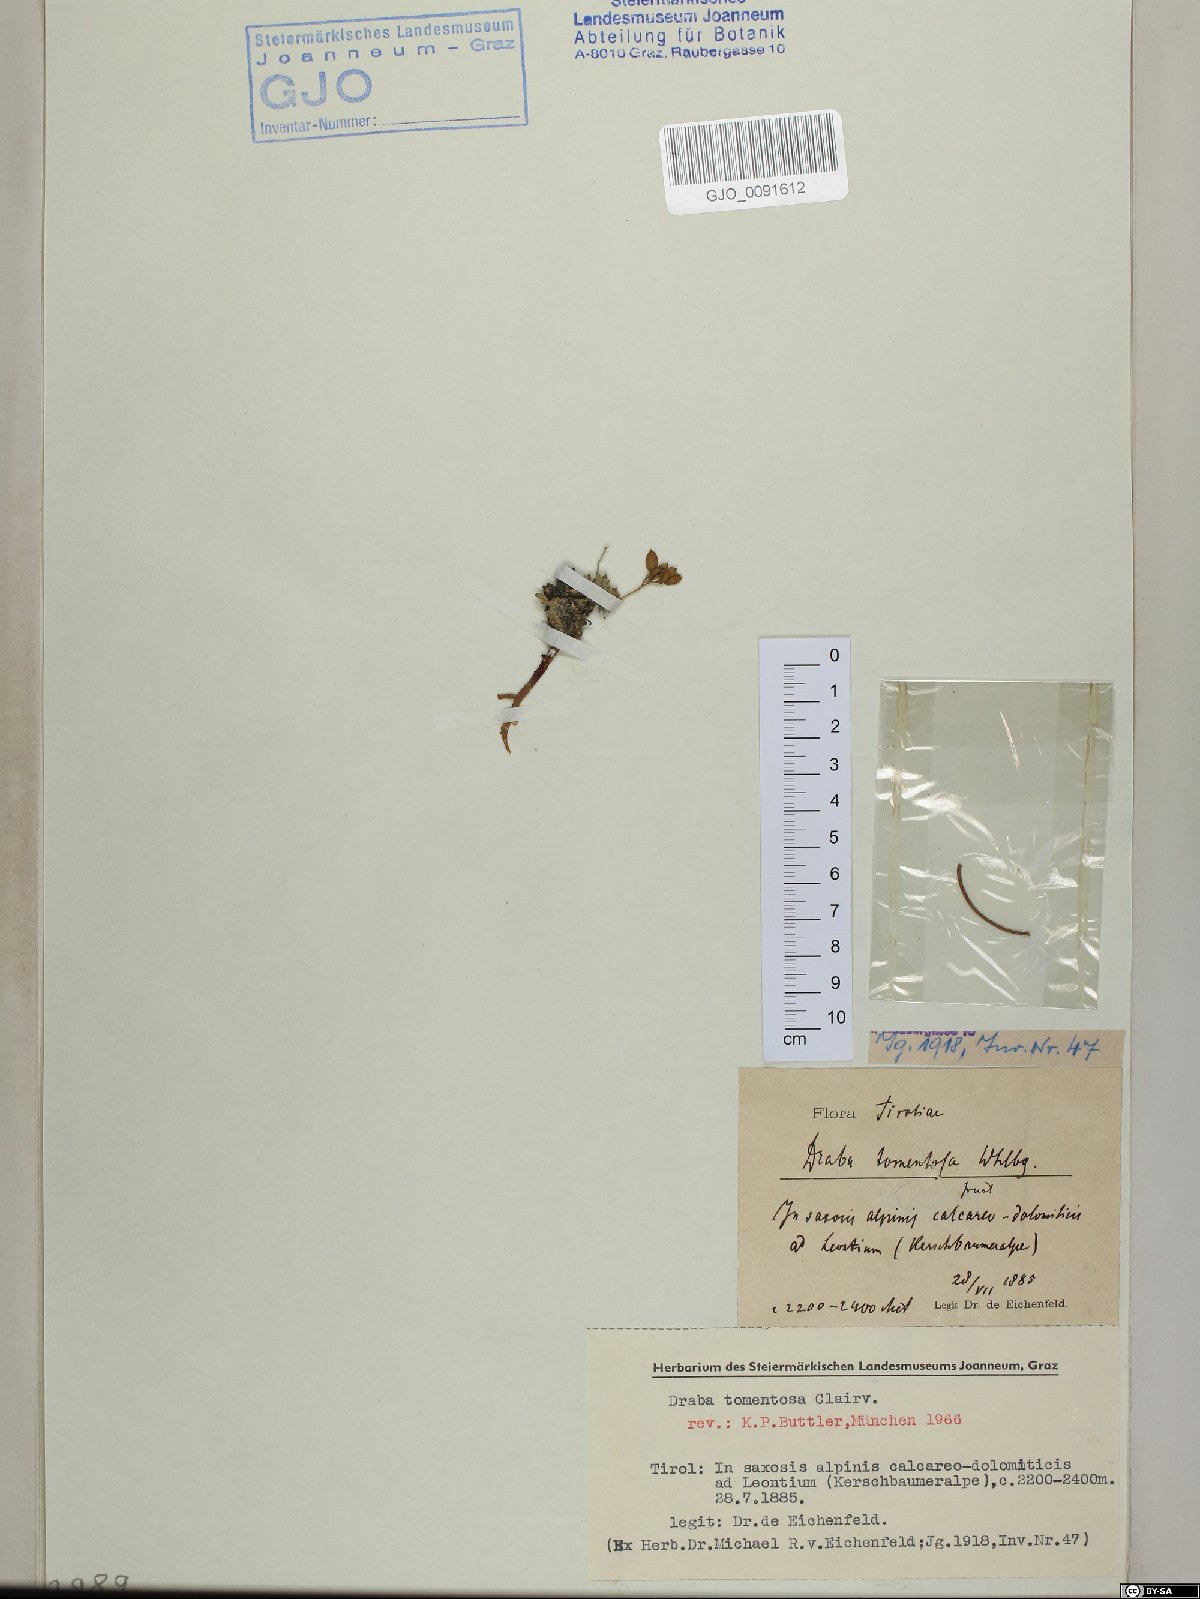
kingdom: Plantae
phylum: Tracheophyta
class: Magnoliopsida
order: Brassicales
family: Brassicaceae
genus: Draba
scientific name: Draba tomentosa
